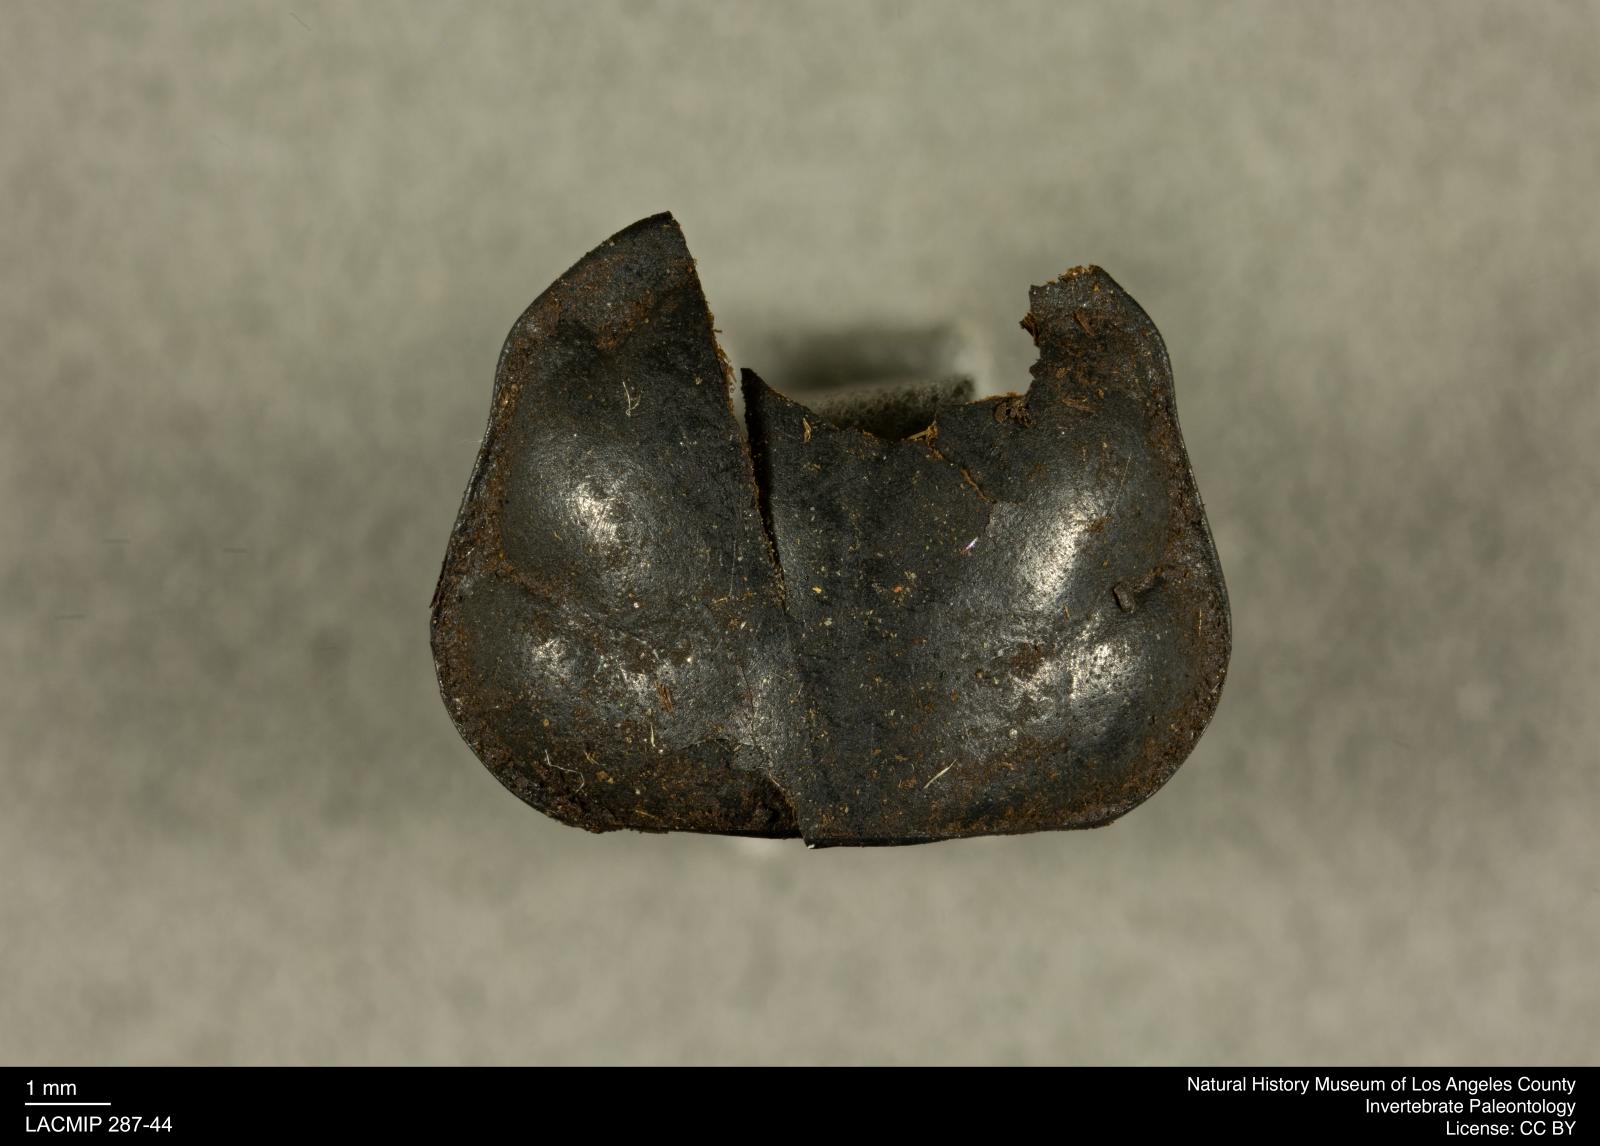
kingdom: Animalia
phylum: Arthropoda
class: Insecta
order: Coleoptera
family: Staphylinidae
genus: Nicrophorus
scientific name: Nicrophorus marginatus
